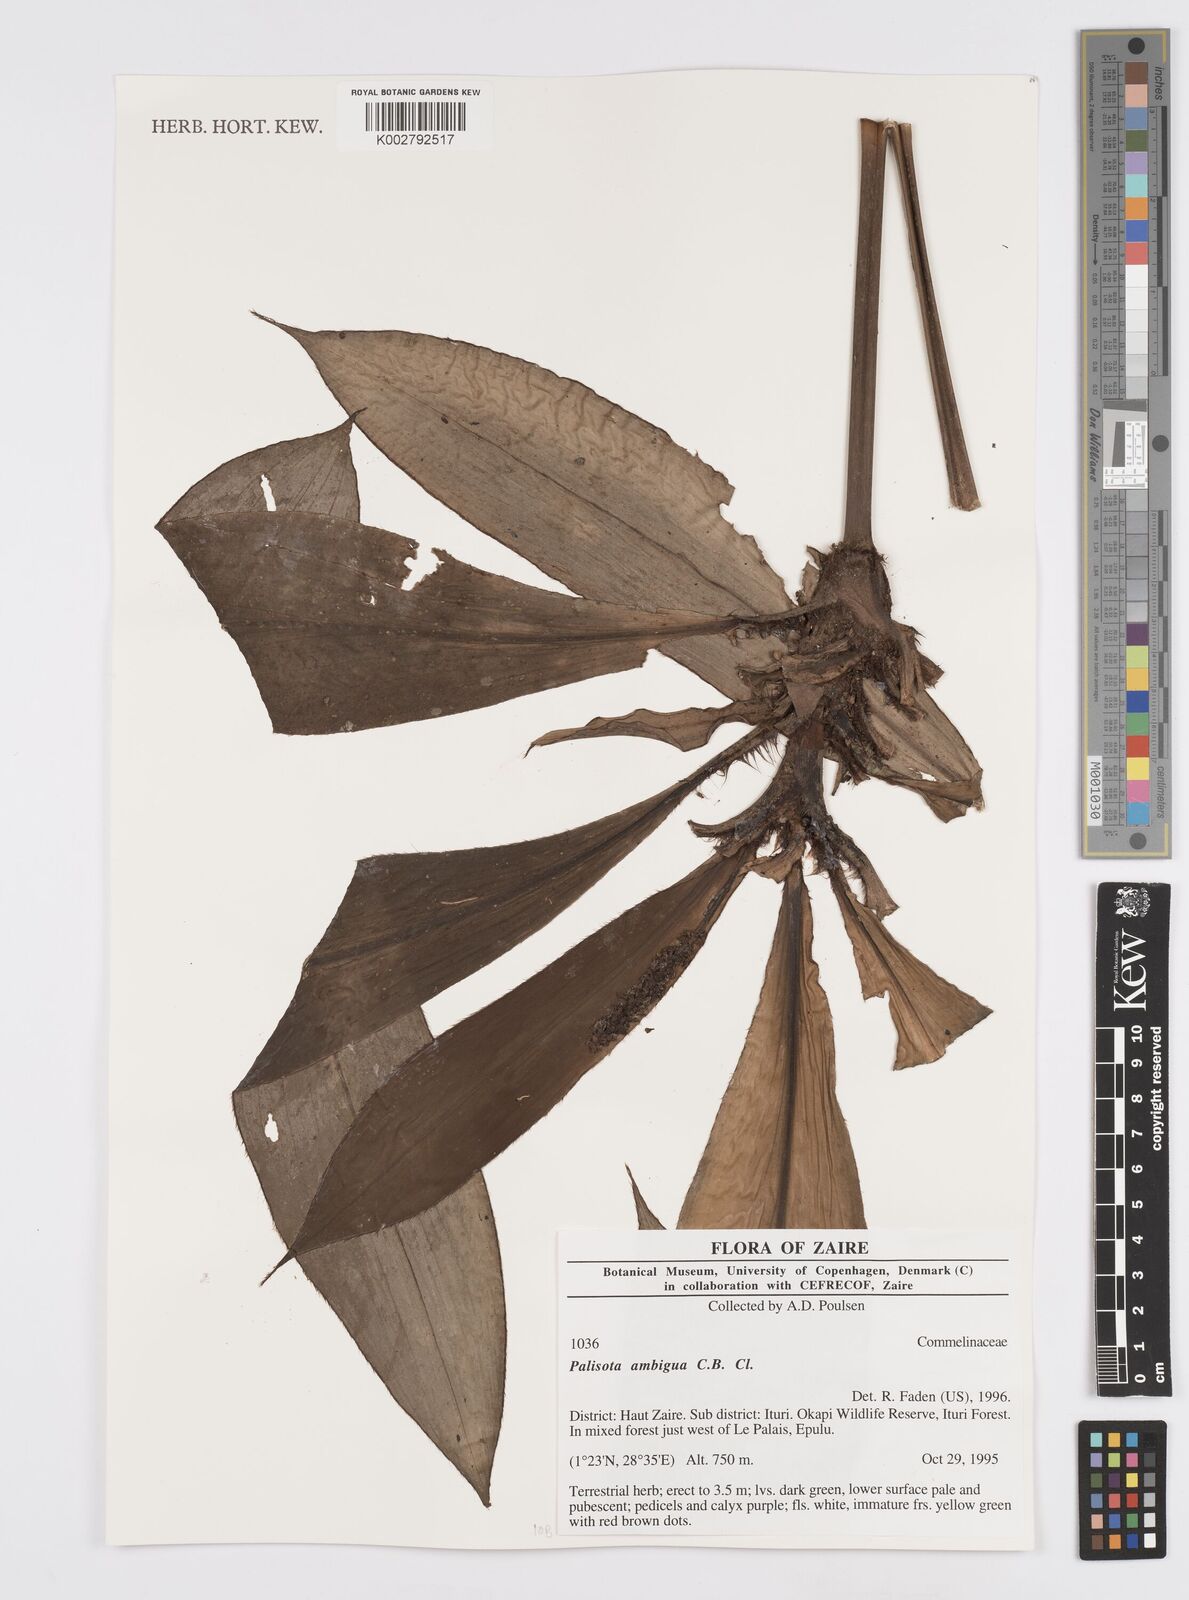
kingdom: Plantae
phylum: Tracheophyta
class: Liliopsida
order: Commelinales
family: Commelinaceae
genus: Palisota
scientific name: Palisota ambigua
